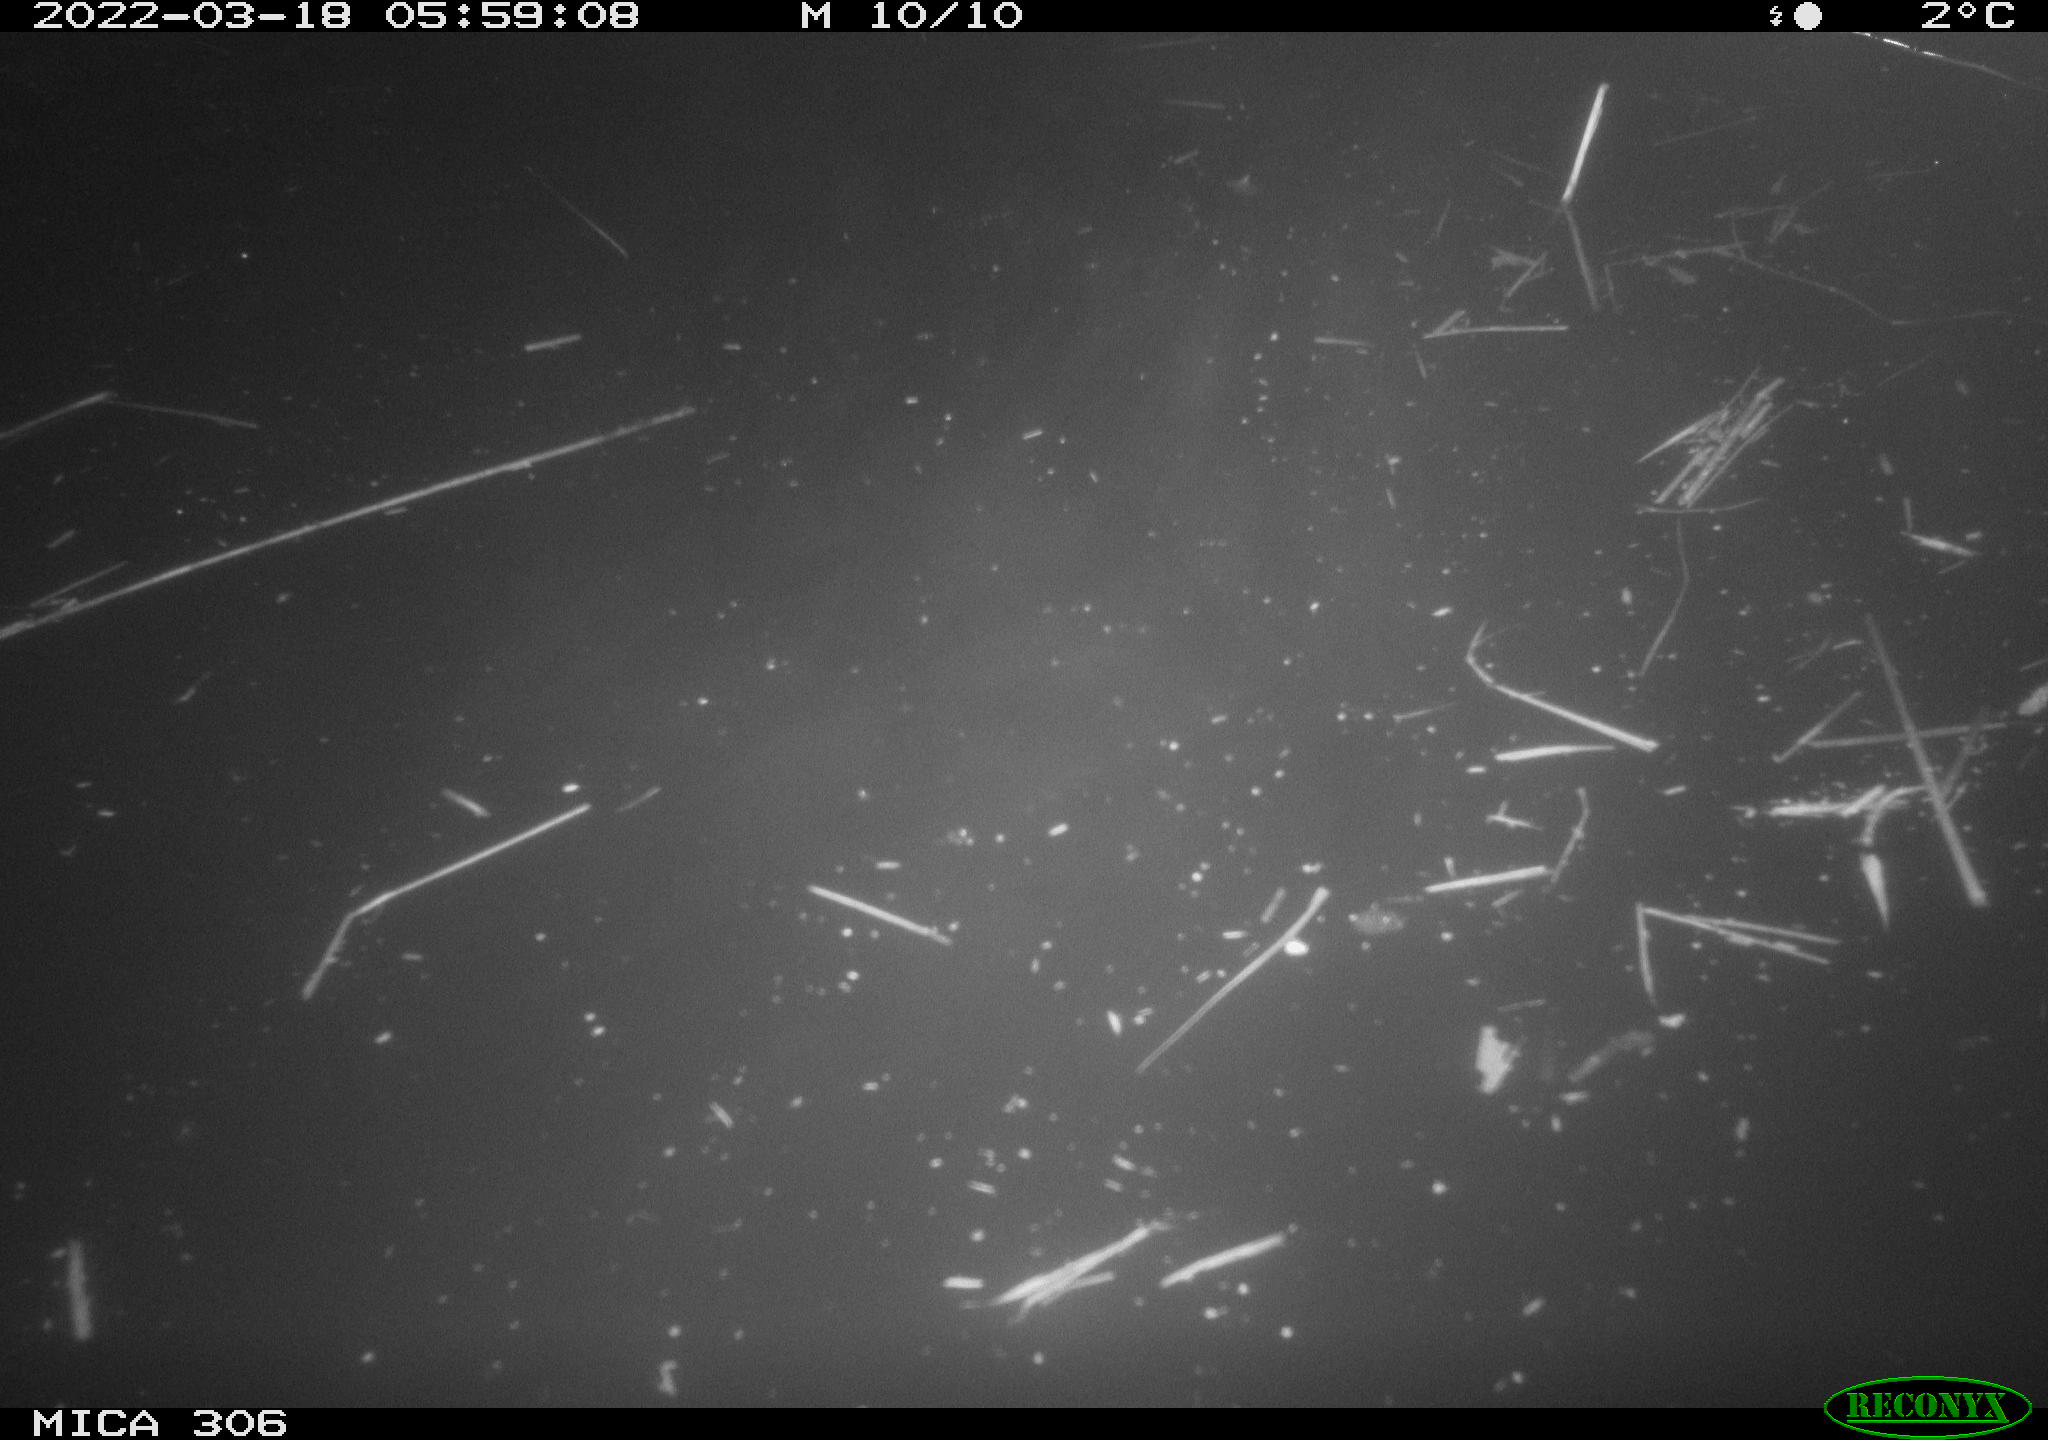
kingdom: Animalia
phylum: Chordata
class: Aves
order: Anseriformes
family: Anatidae
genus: Anas
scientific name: Anas
